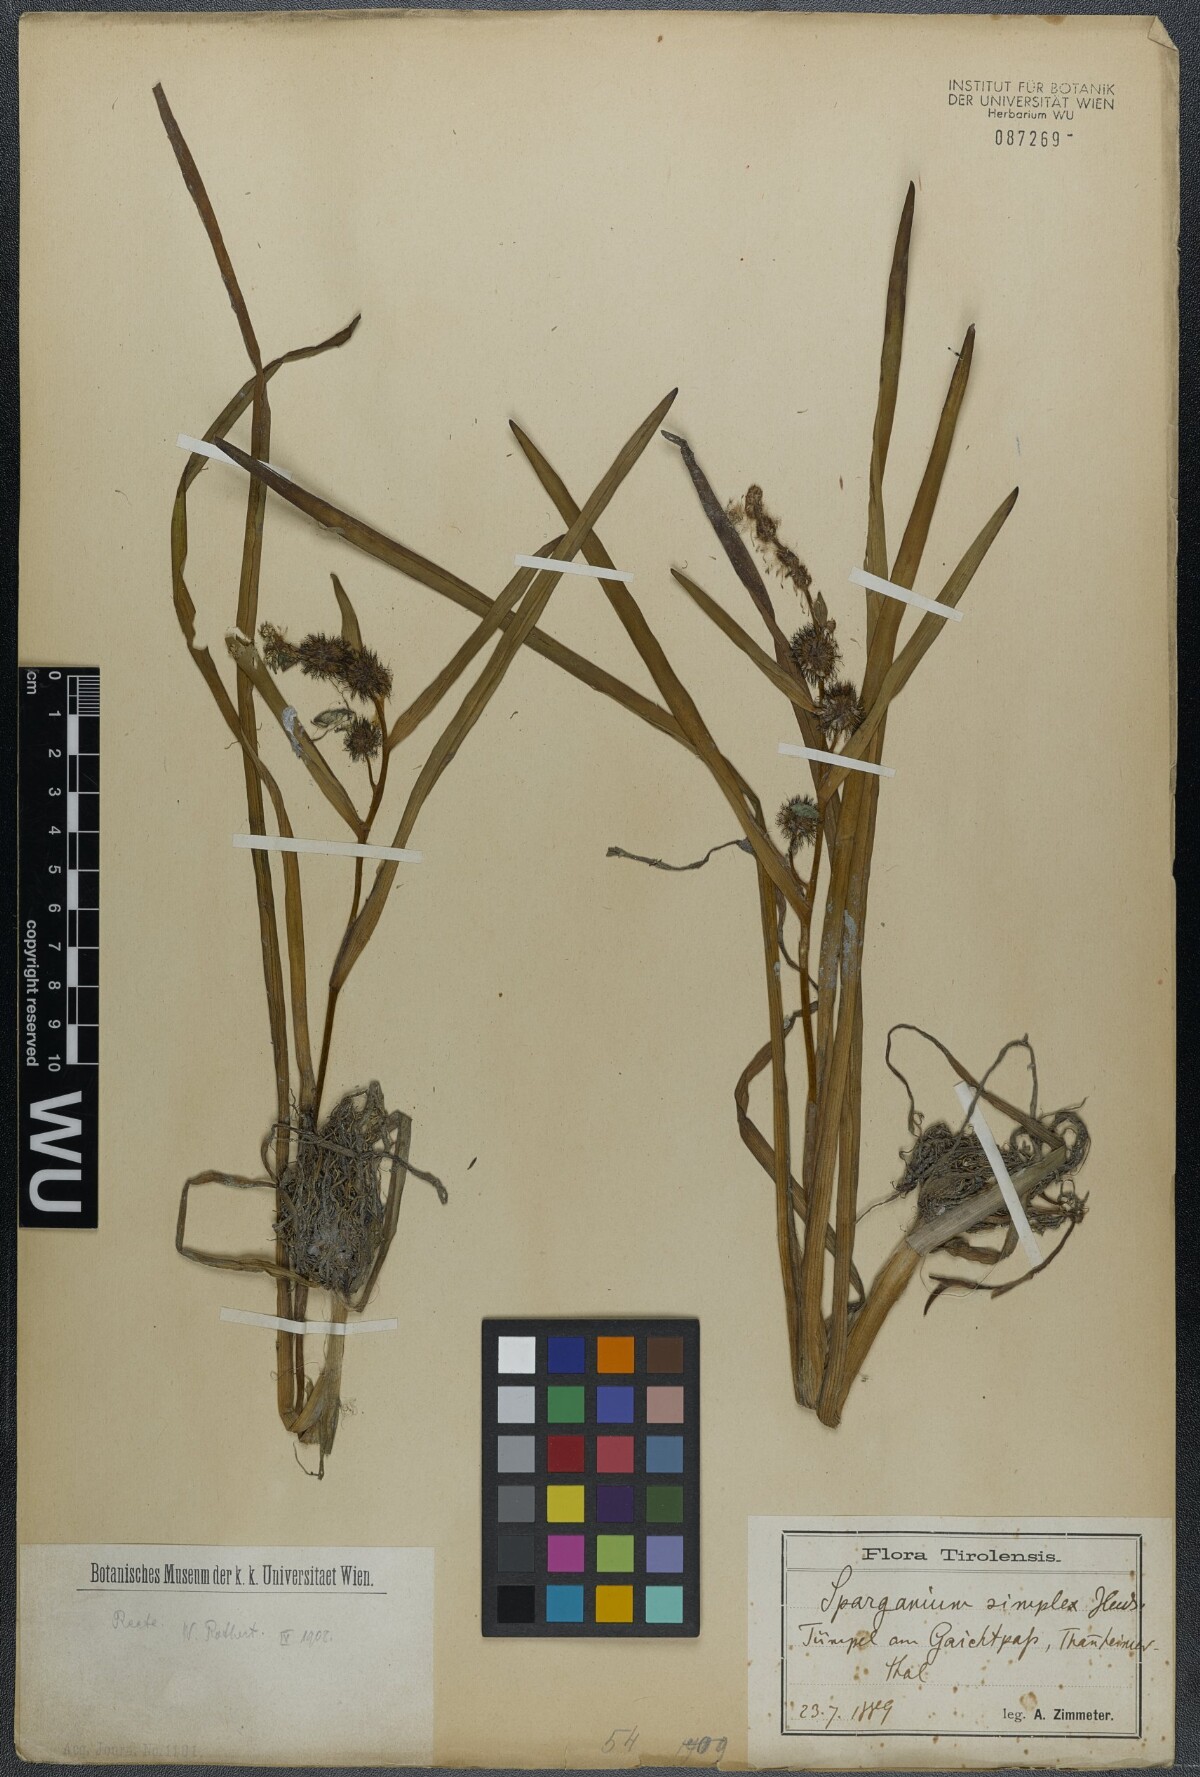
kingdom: Plantae
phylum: Tracheophyta
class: Liliopsida
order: Poales
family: Typhaceae
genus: Sparganium
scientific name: Sparganium emersum
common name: Unbranched bur-reed
